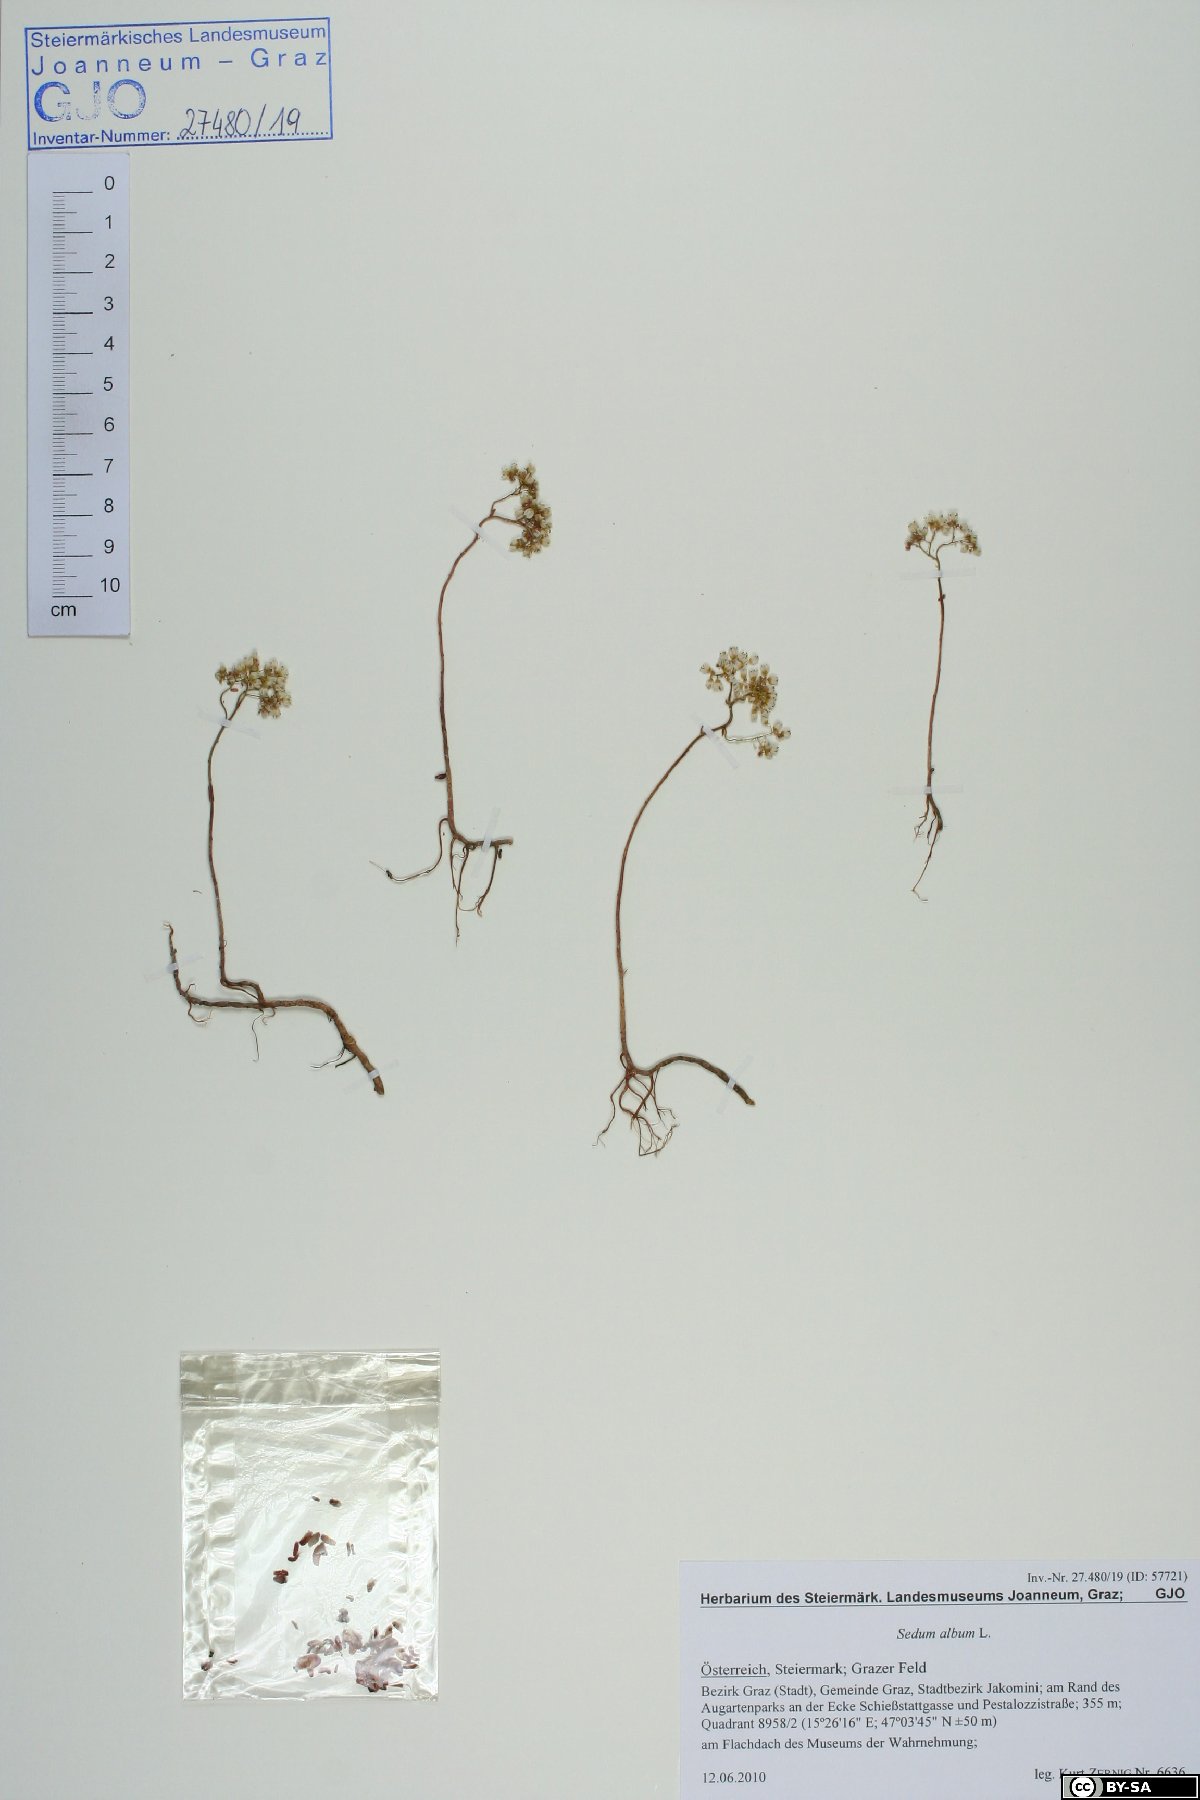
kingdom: Plantae
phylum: Tracheophyta
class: Magnoliopsida
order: Saxifragales
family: Crassulaceae
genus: Sedum
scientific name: Sedum album
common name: White stonecrop
